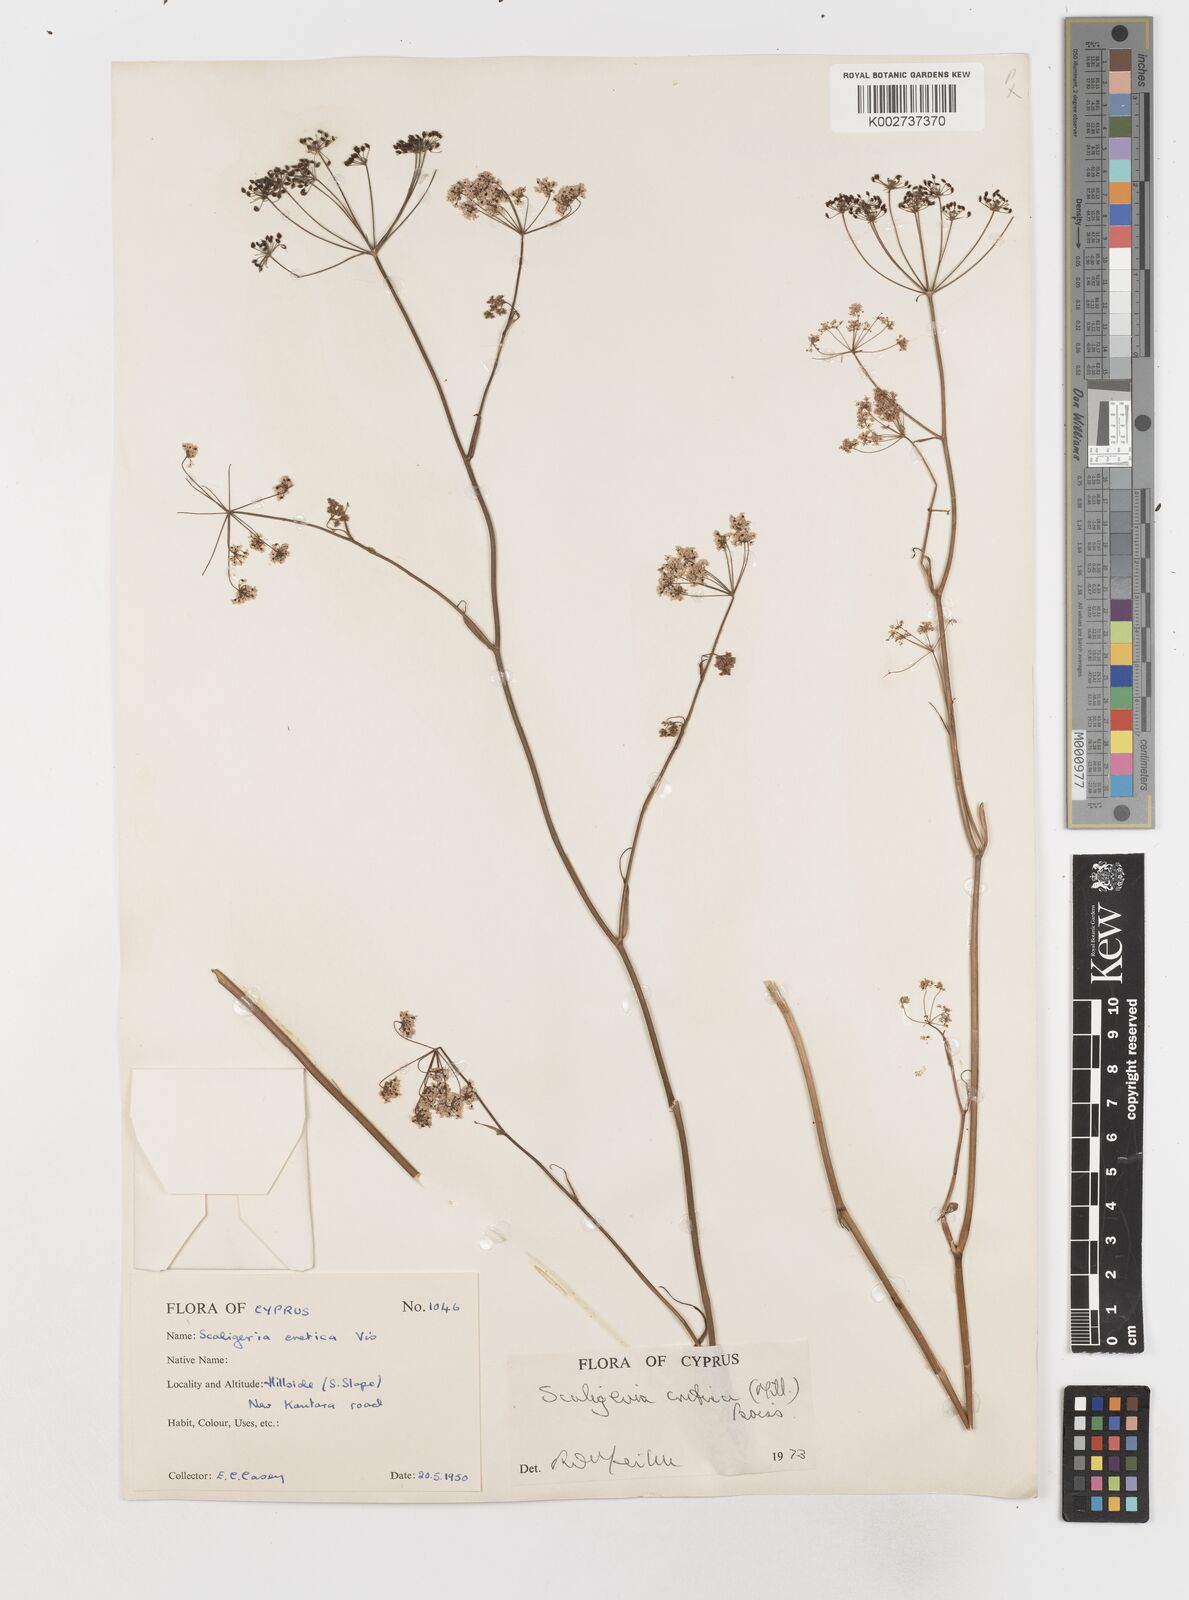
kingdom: Plantae
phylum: Tracheophyta
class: Magnoliopsida
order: Apiales
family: Apiaceae
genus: Scaligeria
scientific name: Scaligeria
